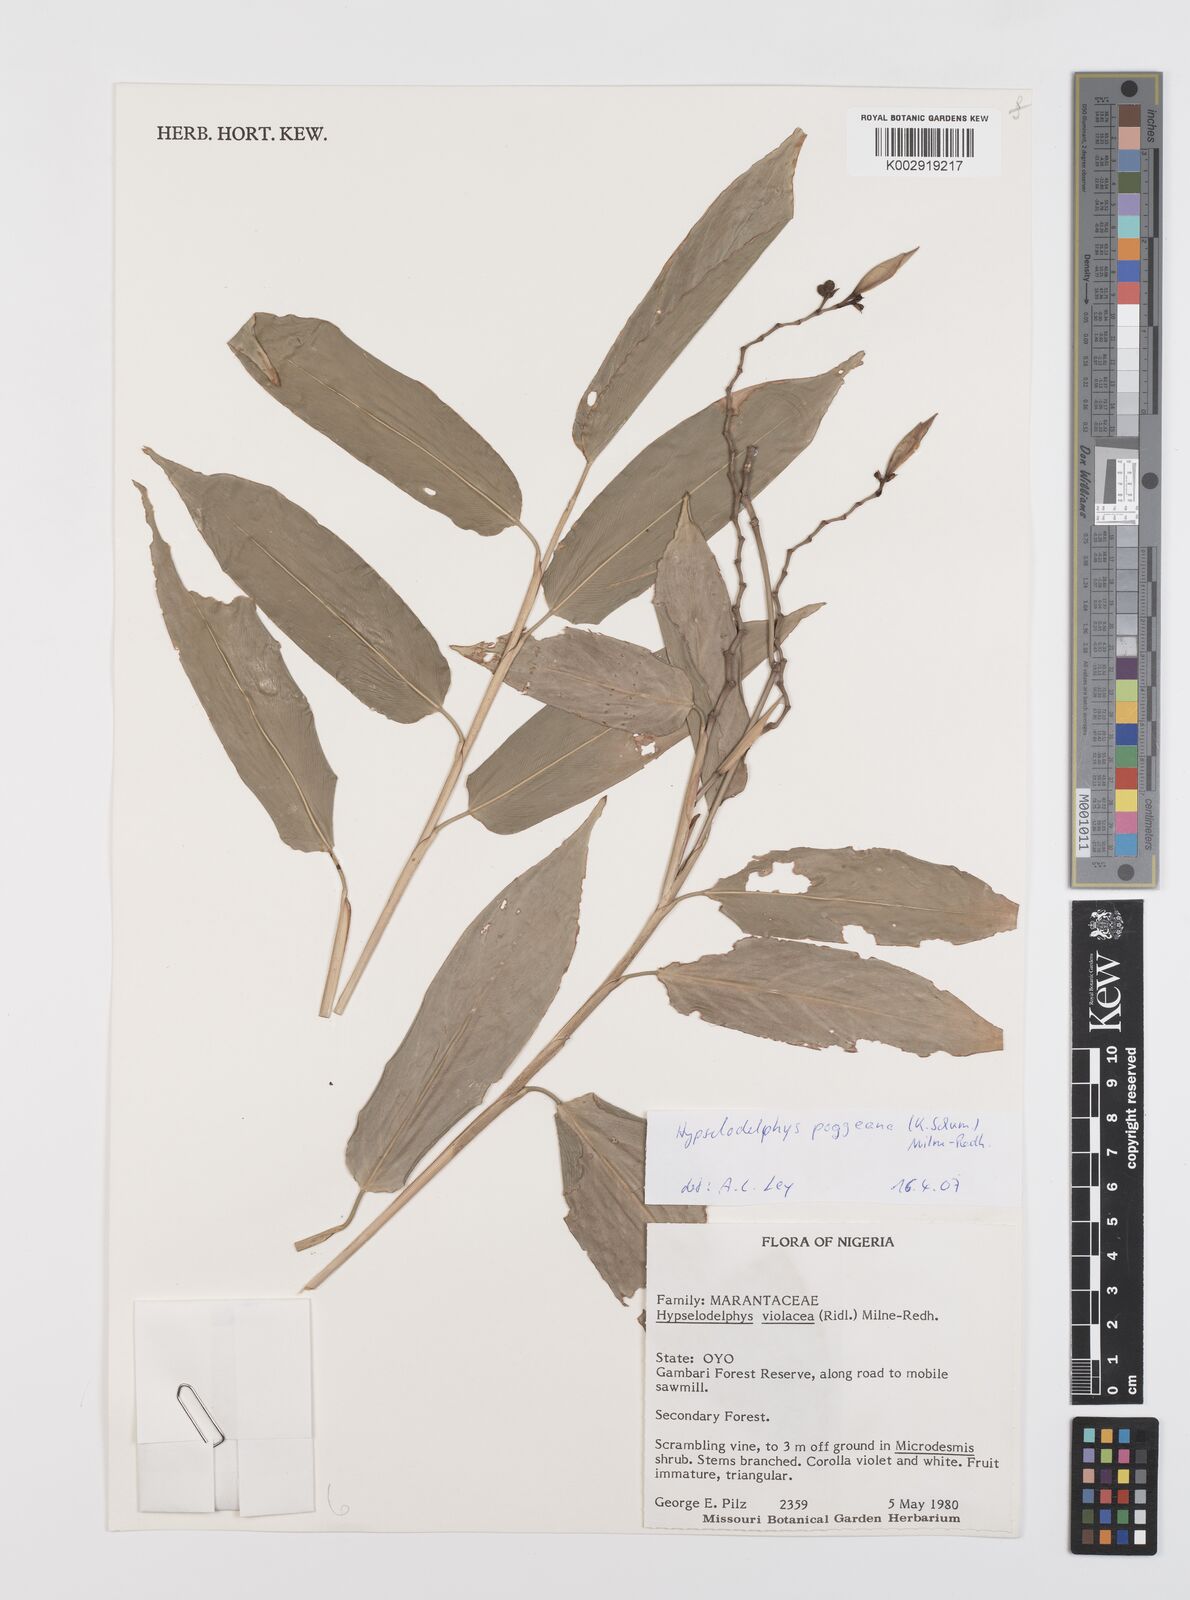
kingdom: Plantae
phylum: Tracheophyta
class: Liliopsida
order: Zingiberales
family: Marantaceae
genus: Hypselodelphys
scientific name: Hypselodelphys poggeana
